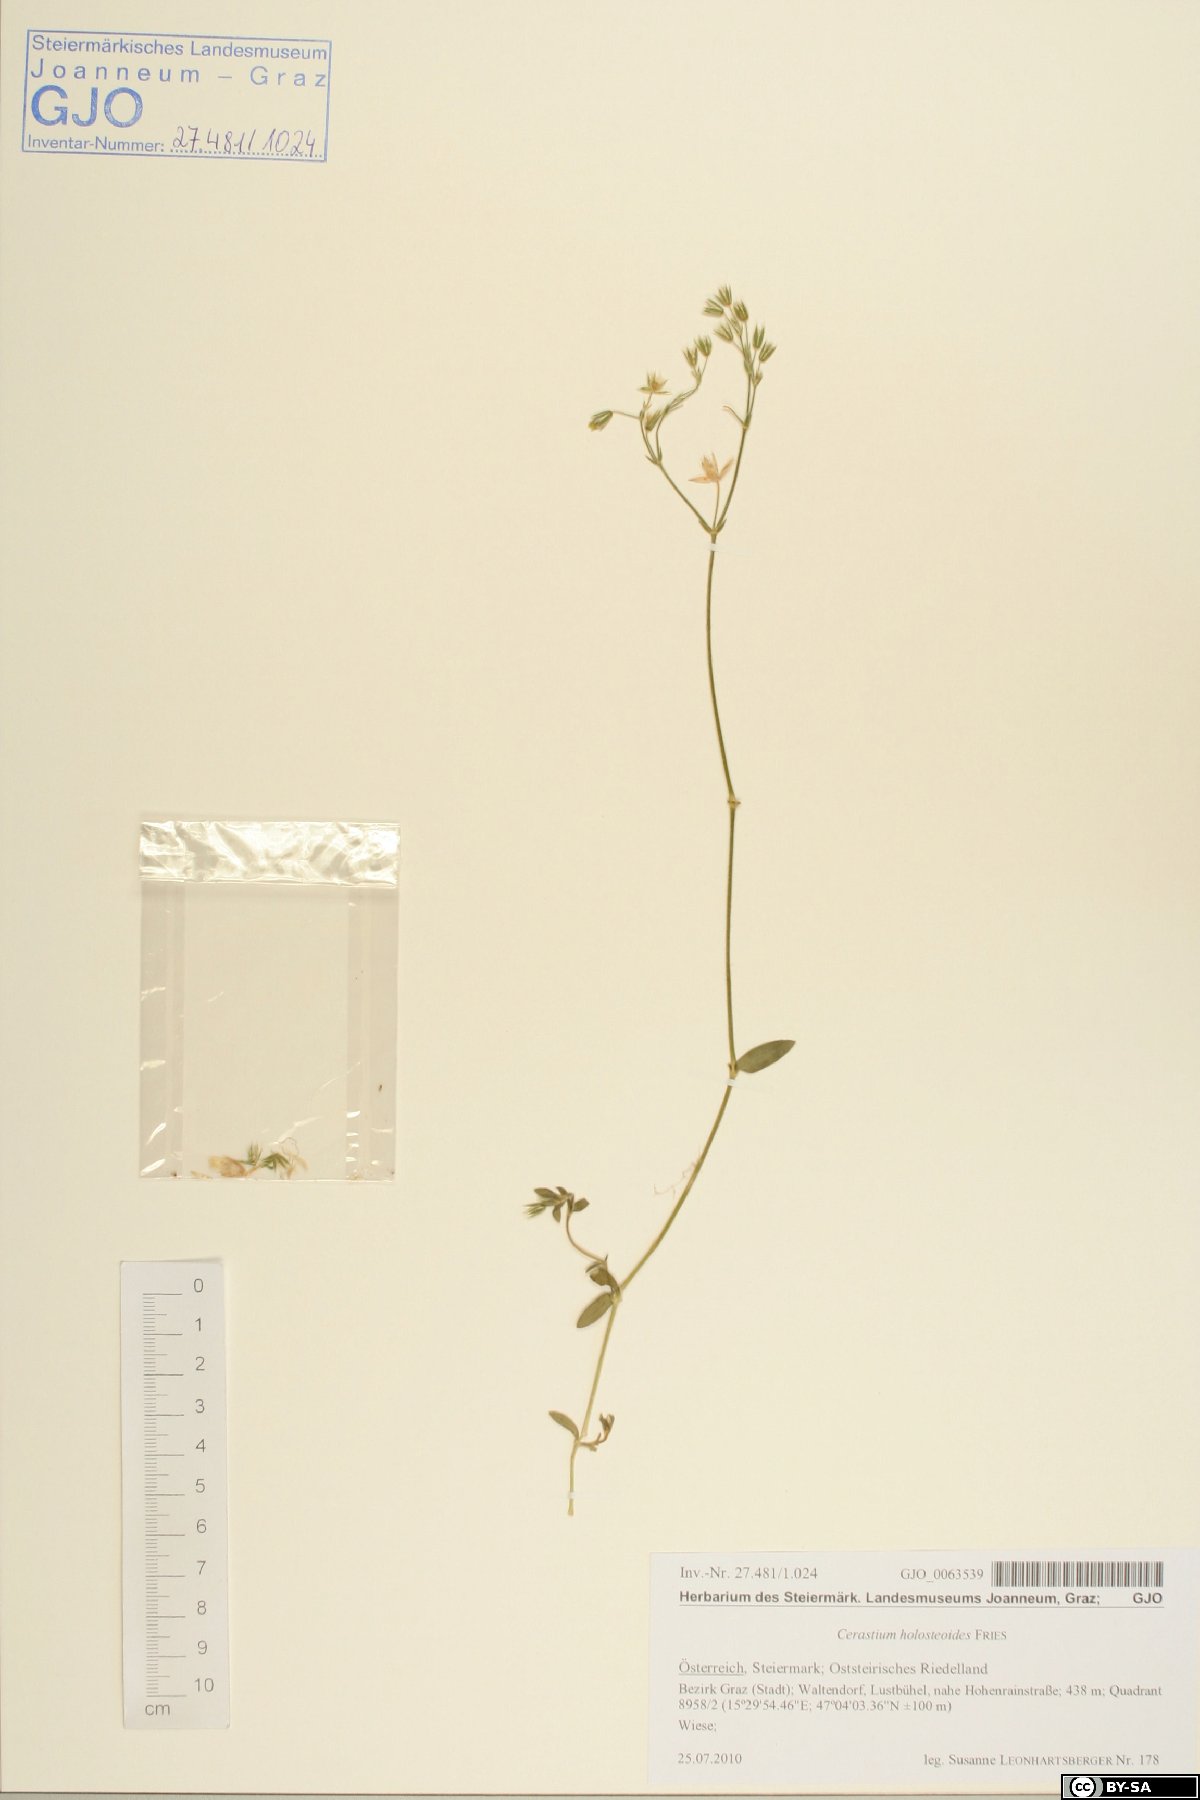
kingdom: Plantae
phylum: Tracheophyta
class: Magnoliopsida
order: Caryophyllales
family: Caryophyllaceae
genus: Cerastium
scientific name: Cerastium holosteoides
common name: Big chickweed
